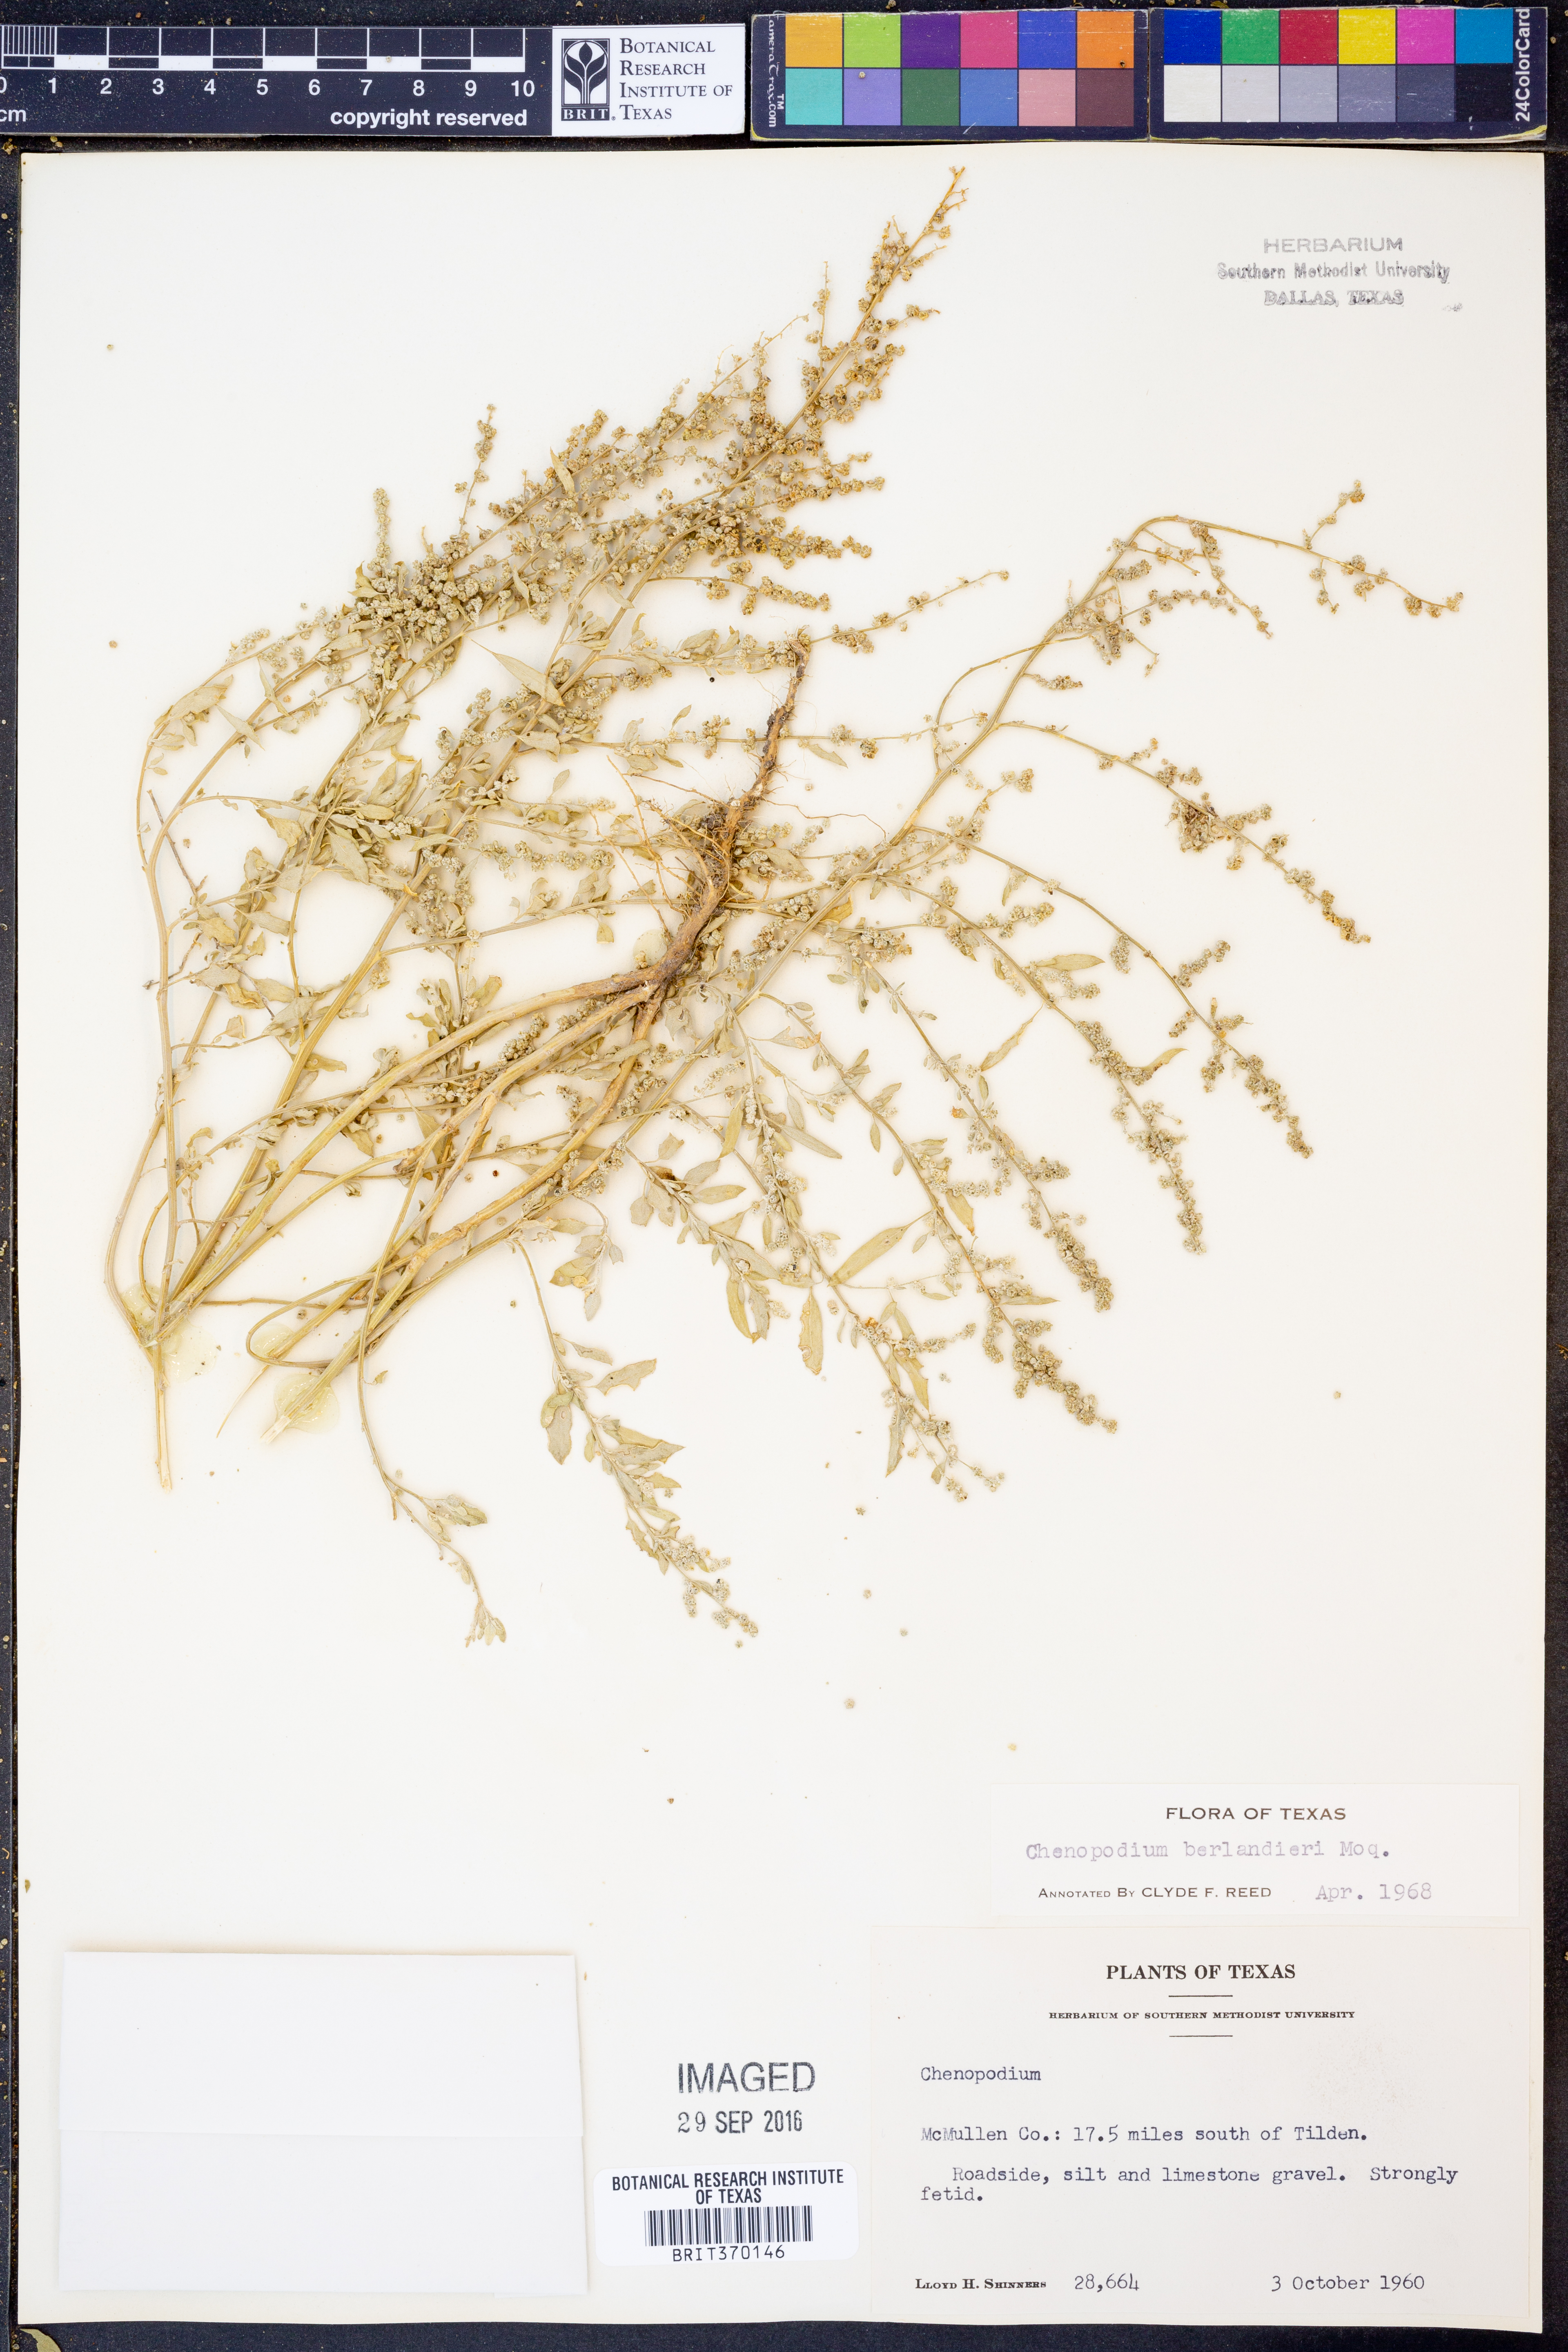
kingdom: Plantae
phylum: Tracheophyta
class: Magnoliopsida
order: Caryophyllales
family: Amaranthaceae
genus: Chenopodium
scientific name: Chenopodium berlandieri
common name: Pit-seed goosefoot
